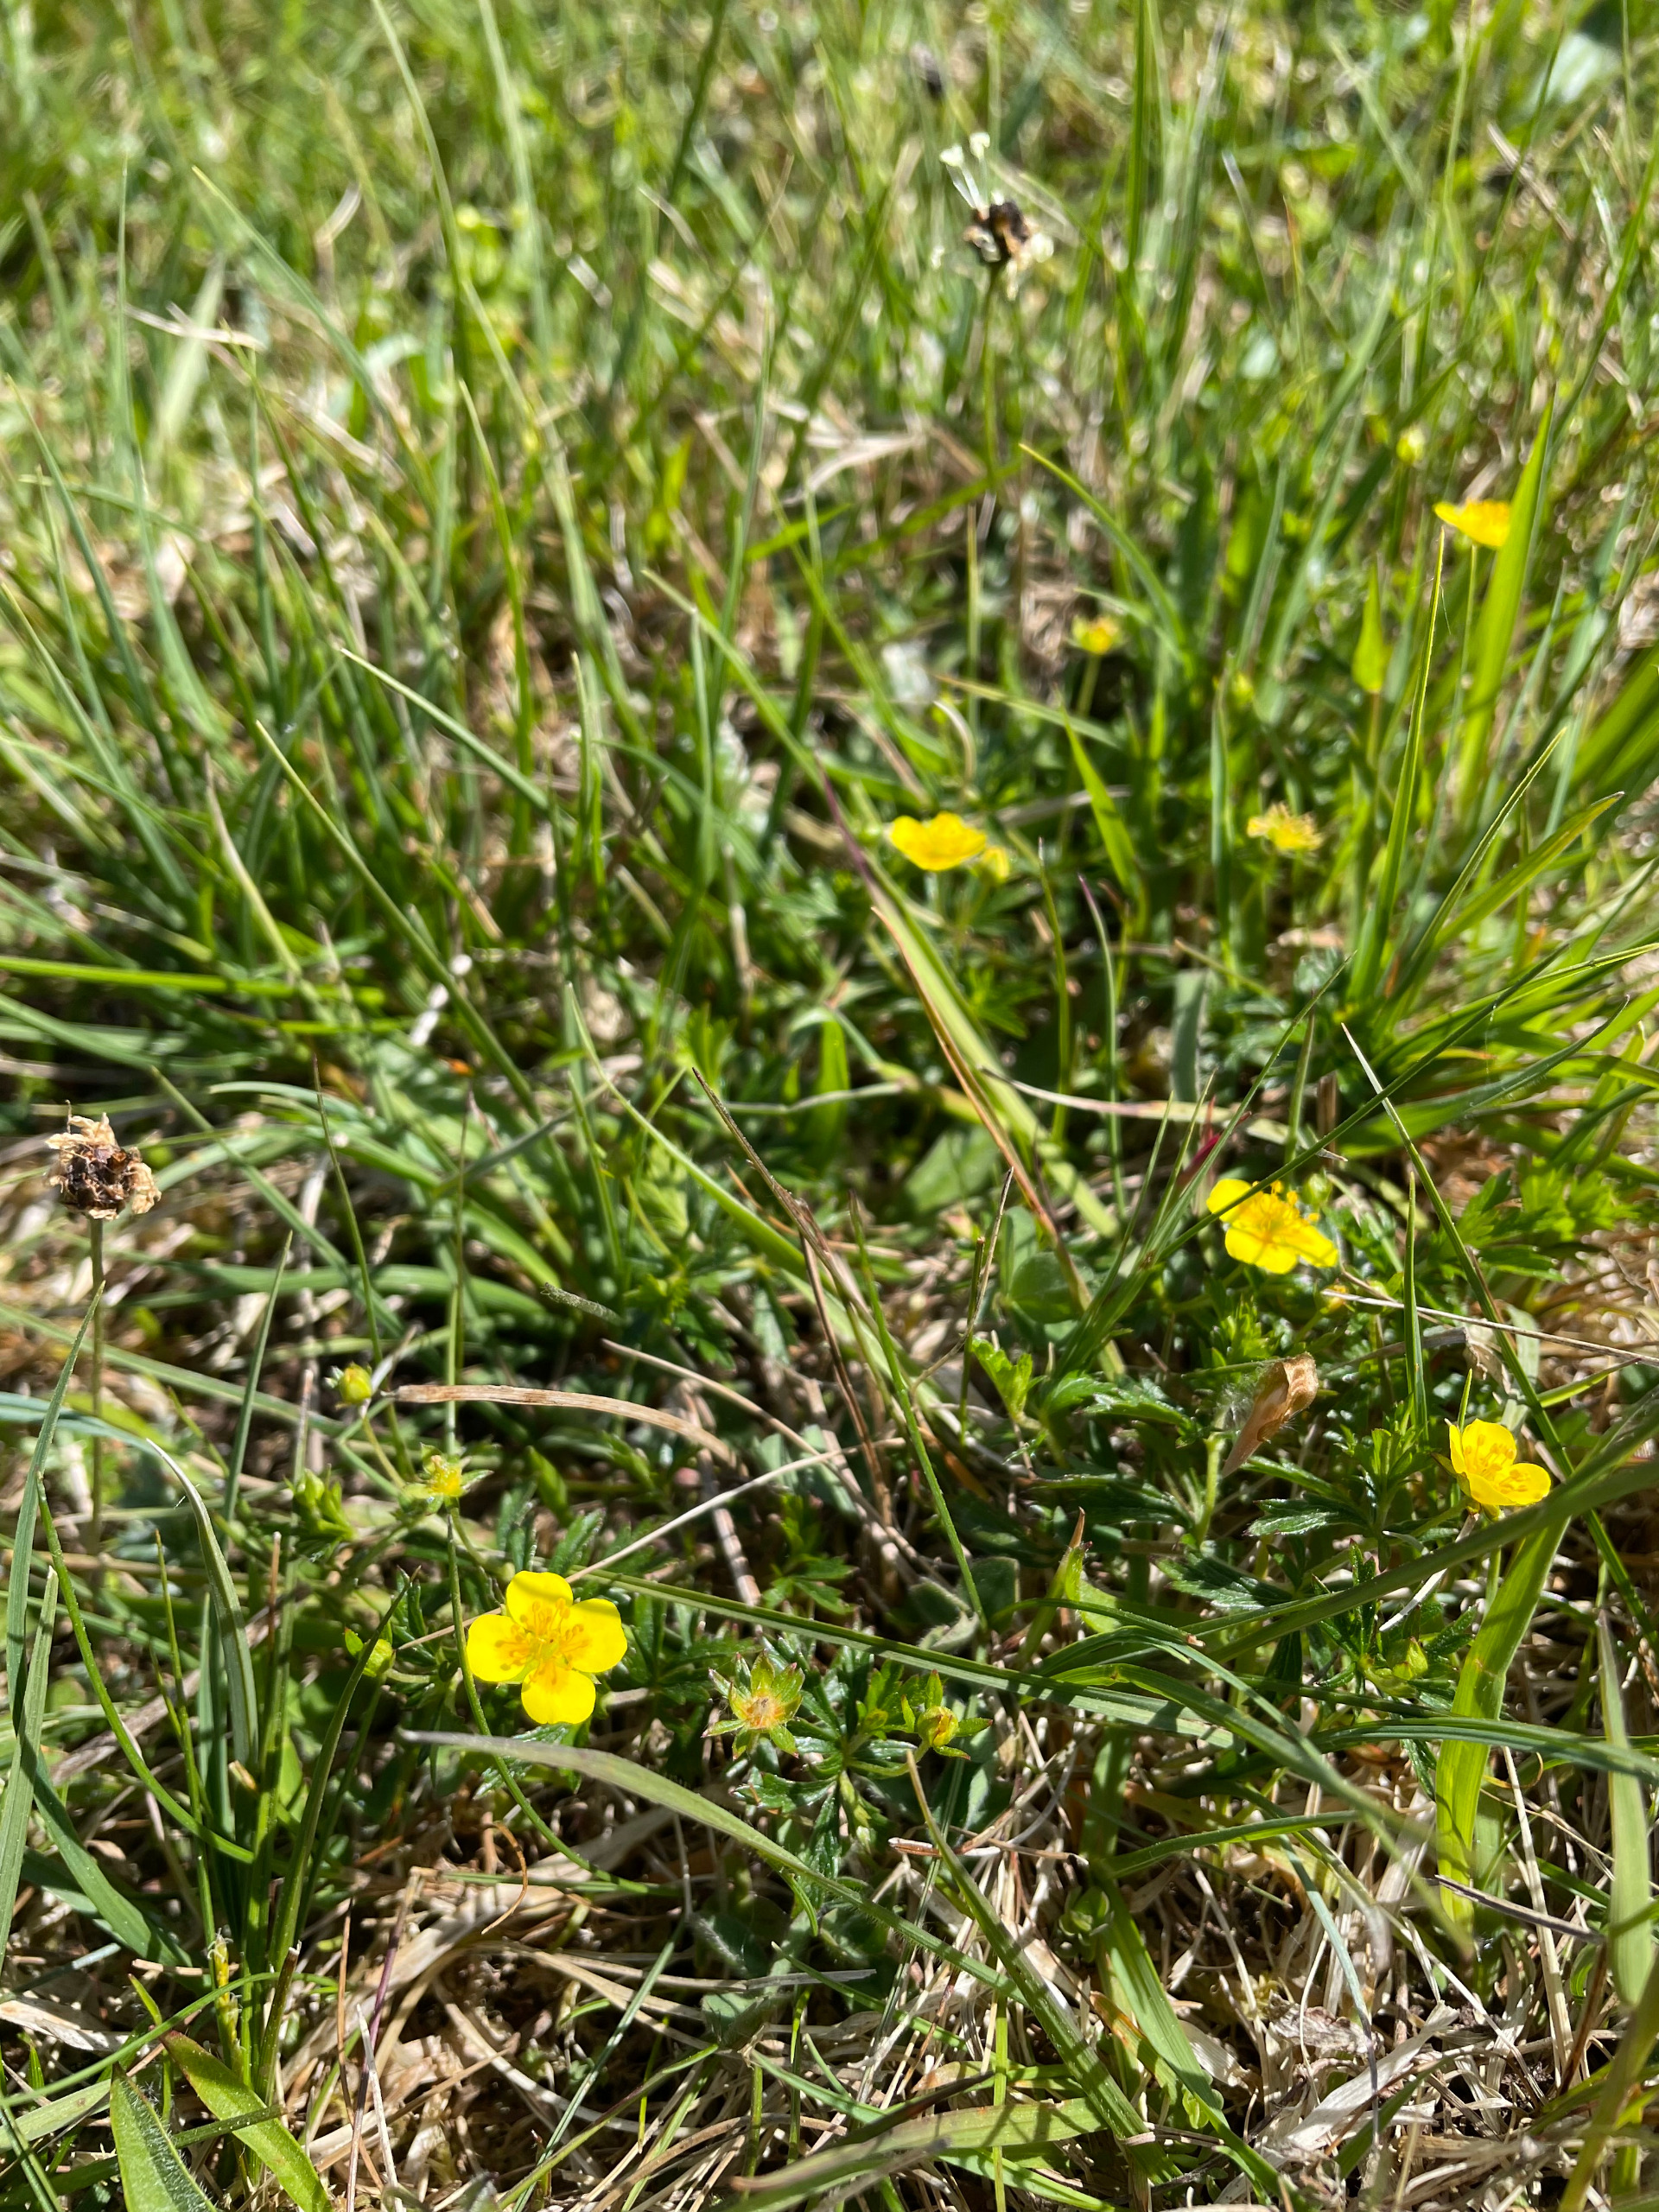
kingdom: Plantae
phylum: Tracheophyta
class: Magnoliopsida
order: Rosales
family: Rosaceae
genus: Potentilla
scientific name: Potentilla erecta
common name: Tormentil
